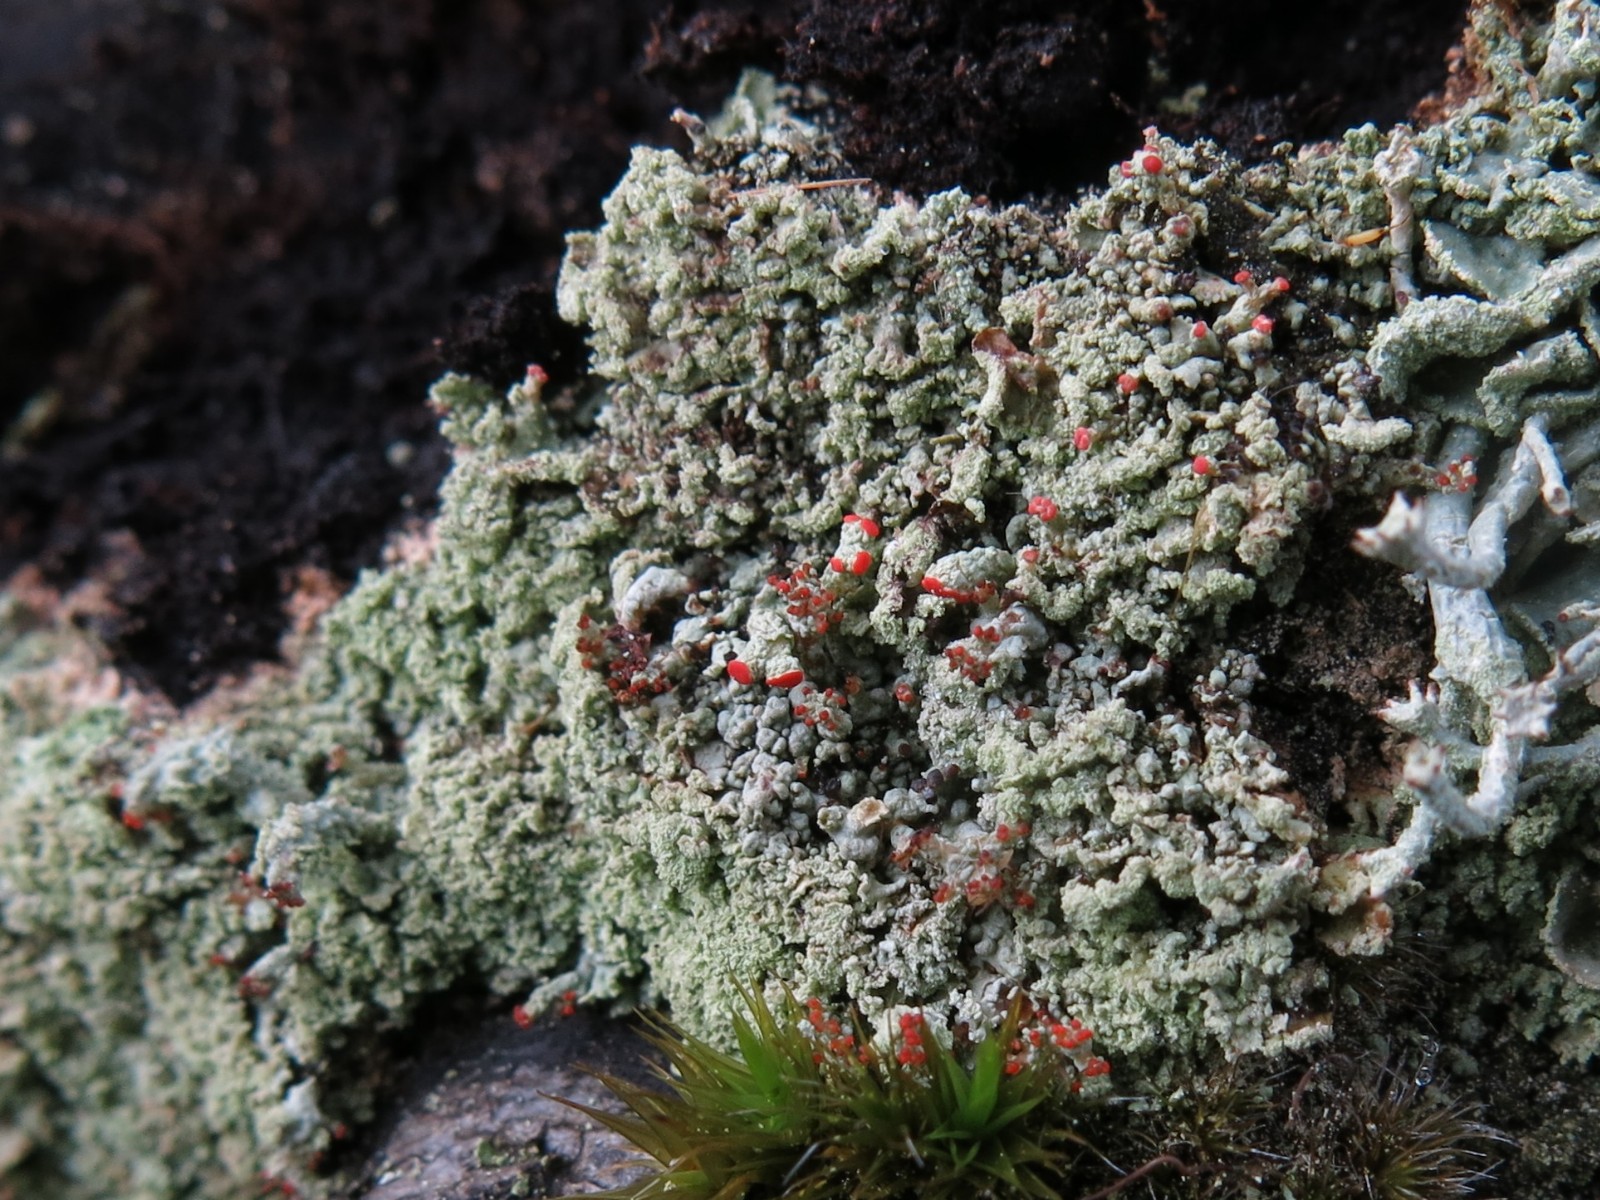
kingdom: Fungi
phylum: Ascomycota
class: Lecanoromycetes
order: Lecanorales
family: Cladoniaceae
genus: Cladonia
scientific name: Cladonia incrassata
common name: tørve-bægerlav
